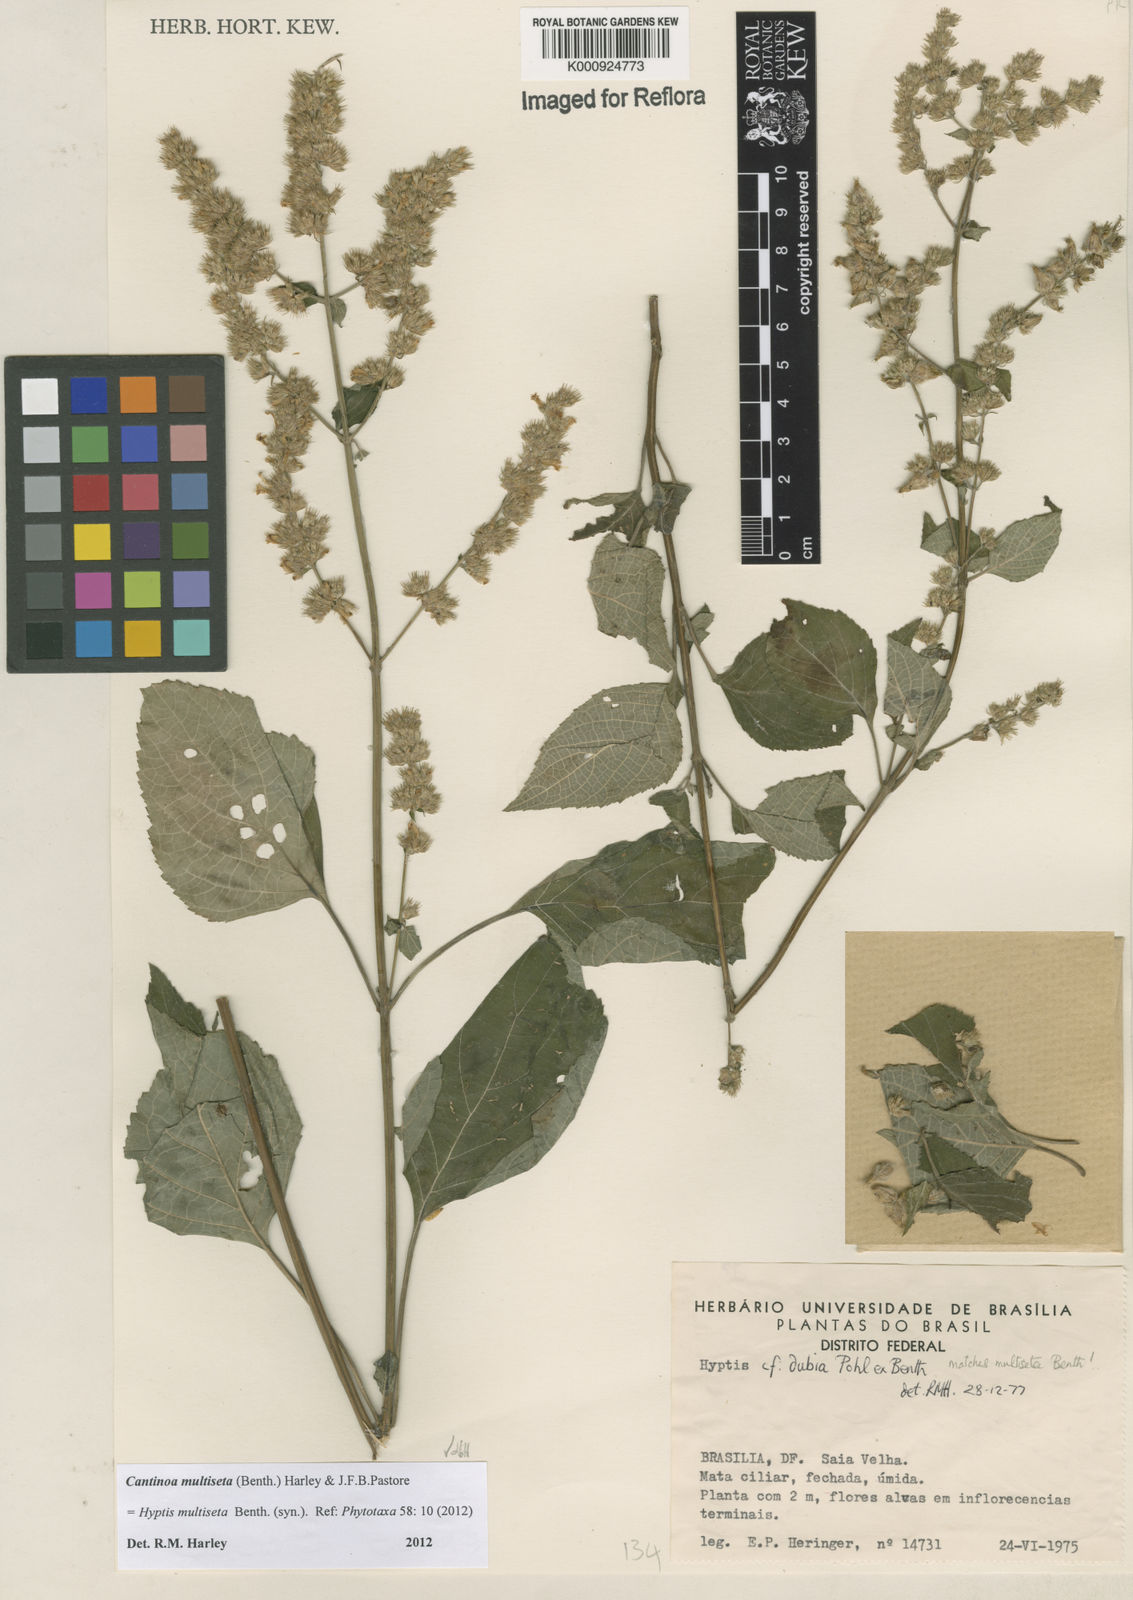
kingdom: Plantae
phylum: Tracheophyta
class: Magnoliopsida
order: Lamiales
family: Lamiaceae
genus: Cantinoa
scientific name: Cantinoa multiseta
